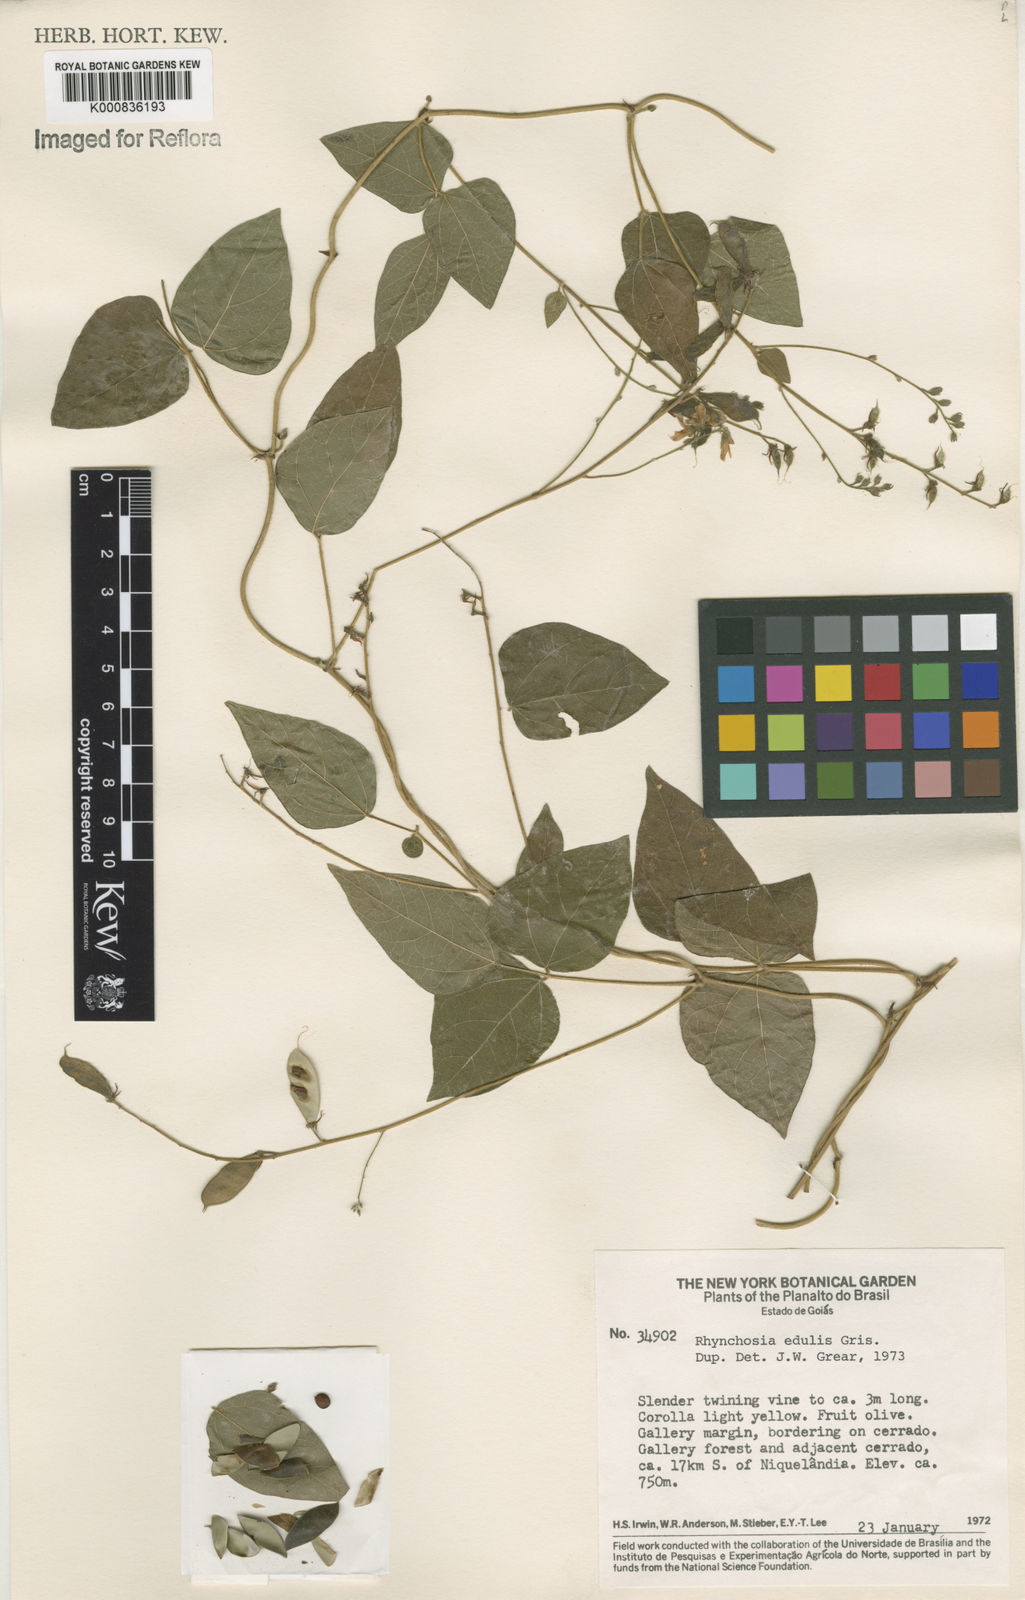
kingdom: Plantae
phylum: Tracheophyta
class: Magnoliopsida
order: Fabales
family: Fabaceae
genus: Rhynchosia
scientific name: Rhynchosia edulis
